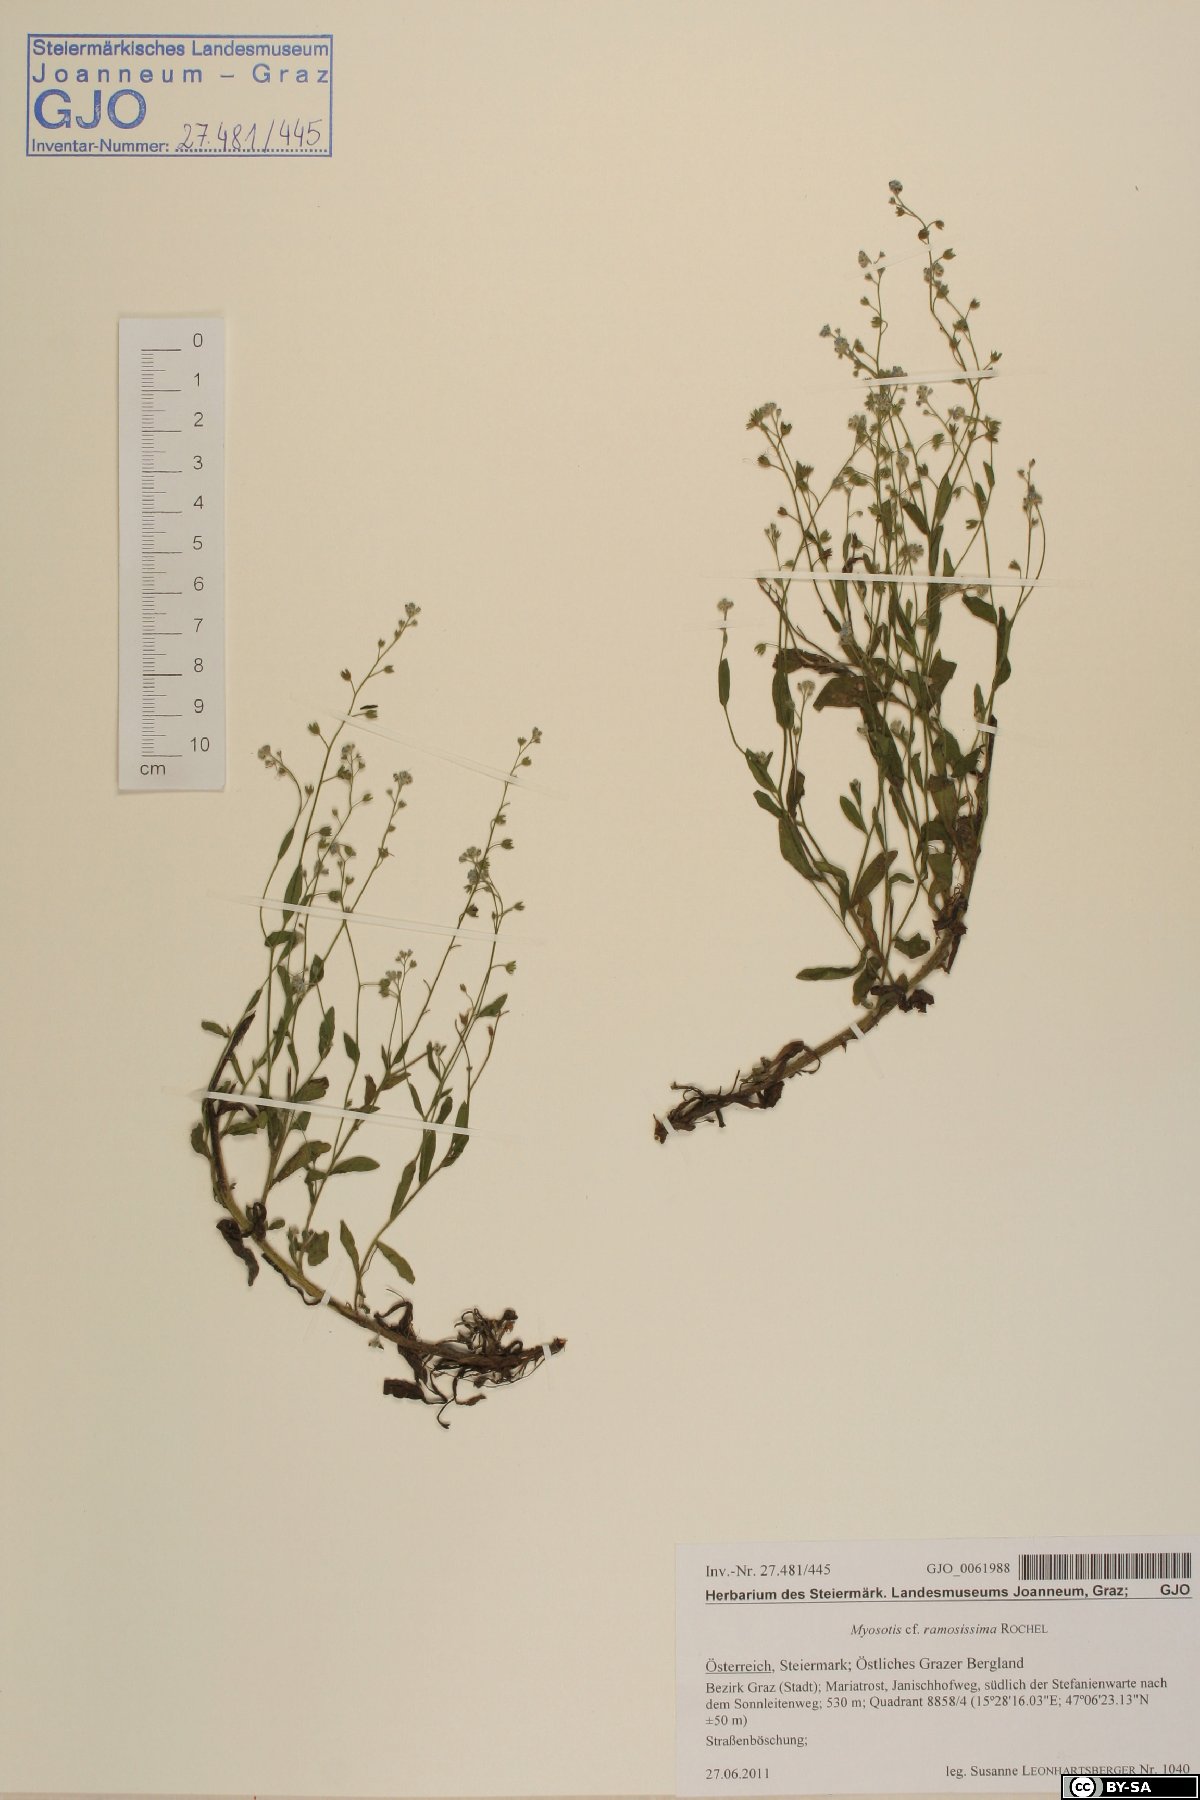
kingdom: Plantae
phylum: Tracheophyta
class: Magnoliopsida
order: Boraginales
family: Boraginaceae
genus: Myosotis
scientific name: Myosotis ramosissima
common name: Early forget-me-not
